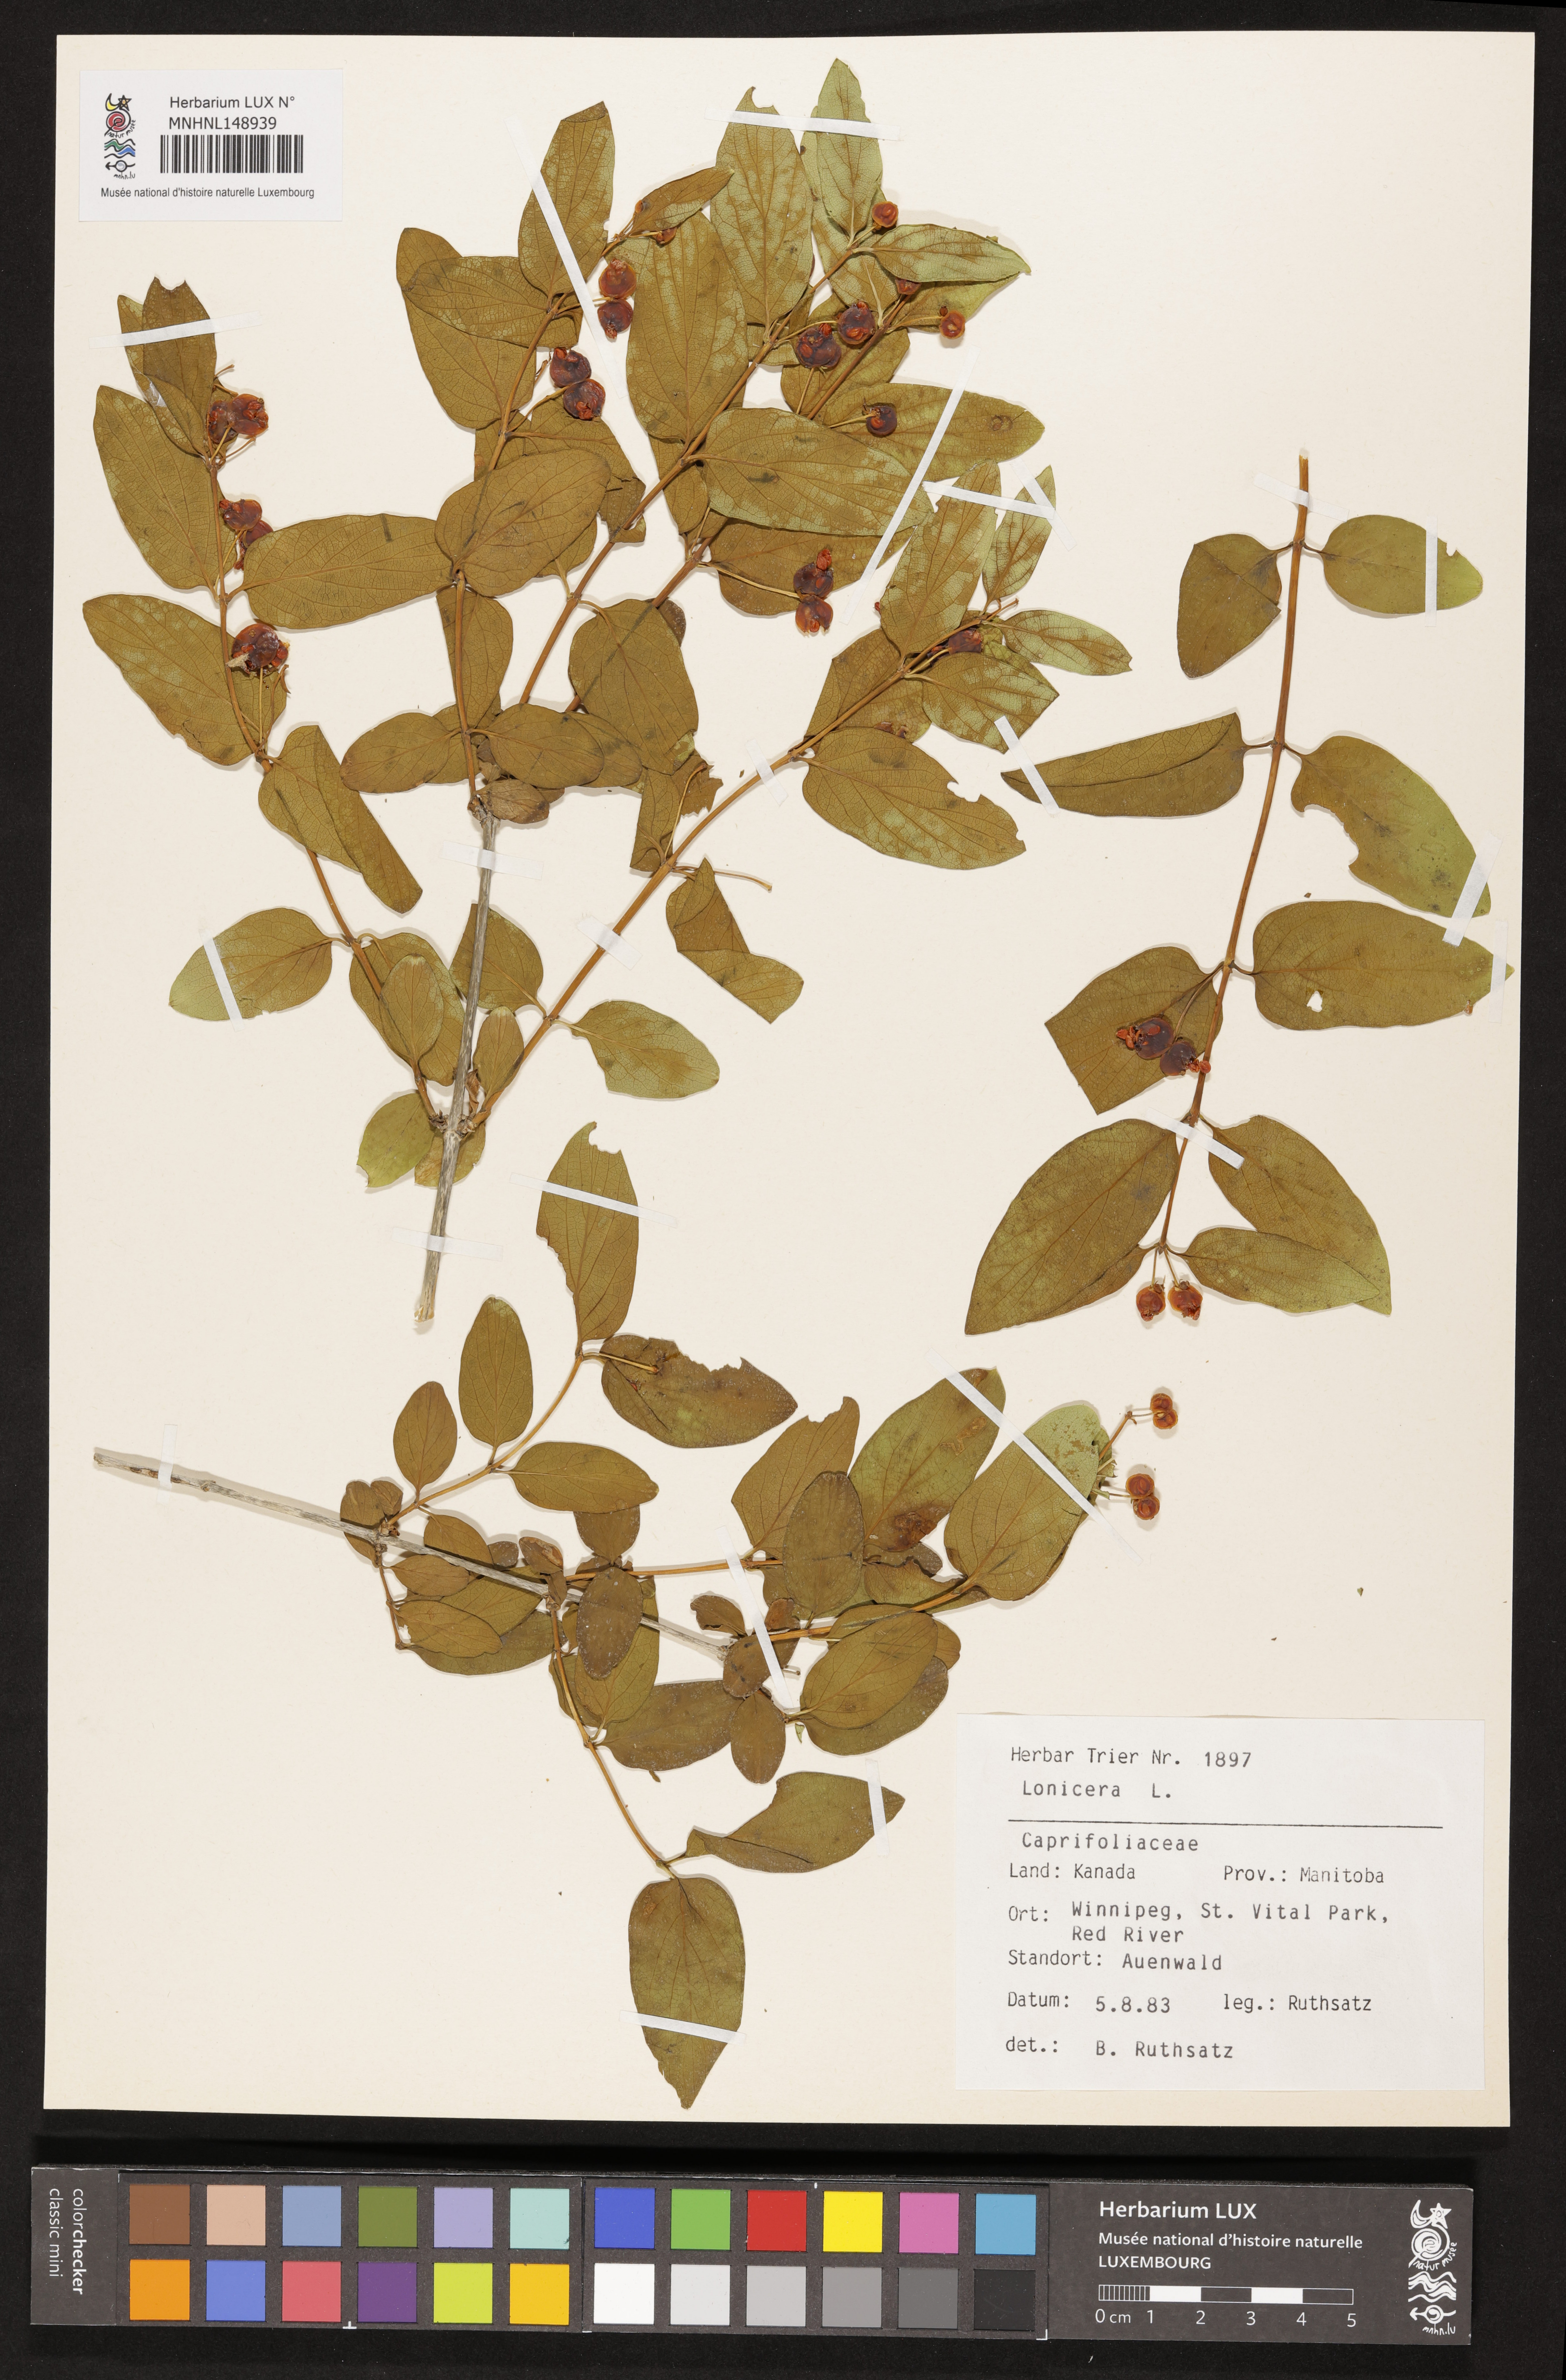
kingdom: Plantae
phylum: Tracheophyta
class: Magnoliopsida
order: Dipsacales
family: Caprifoliaceae
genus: Lonicera
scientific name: Lonicera
